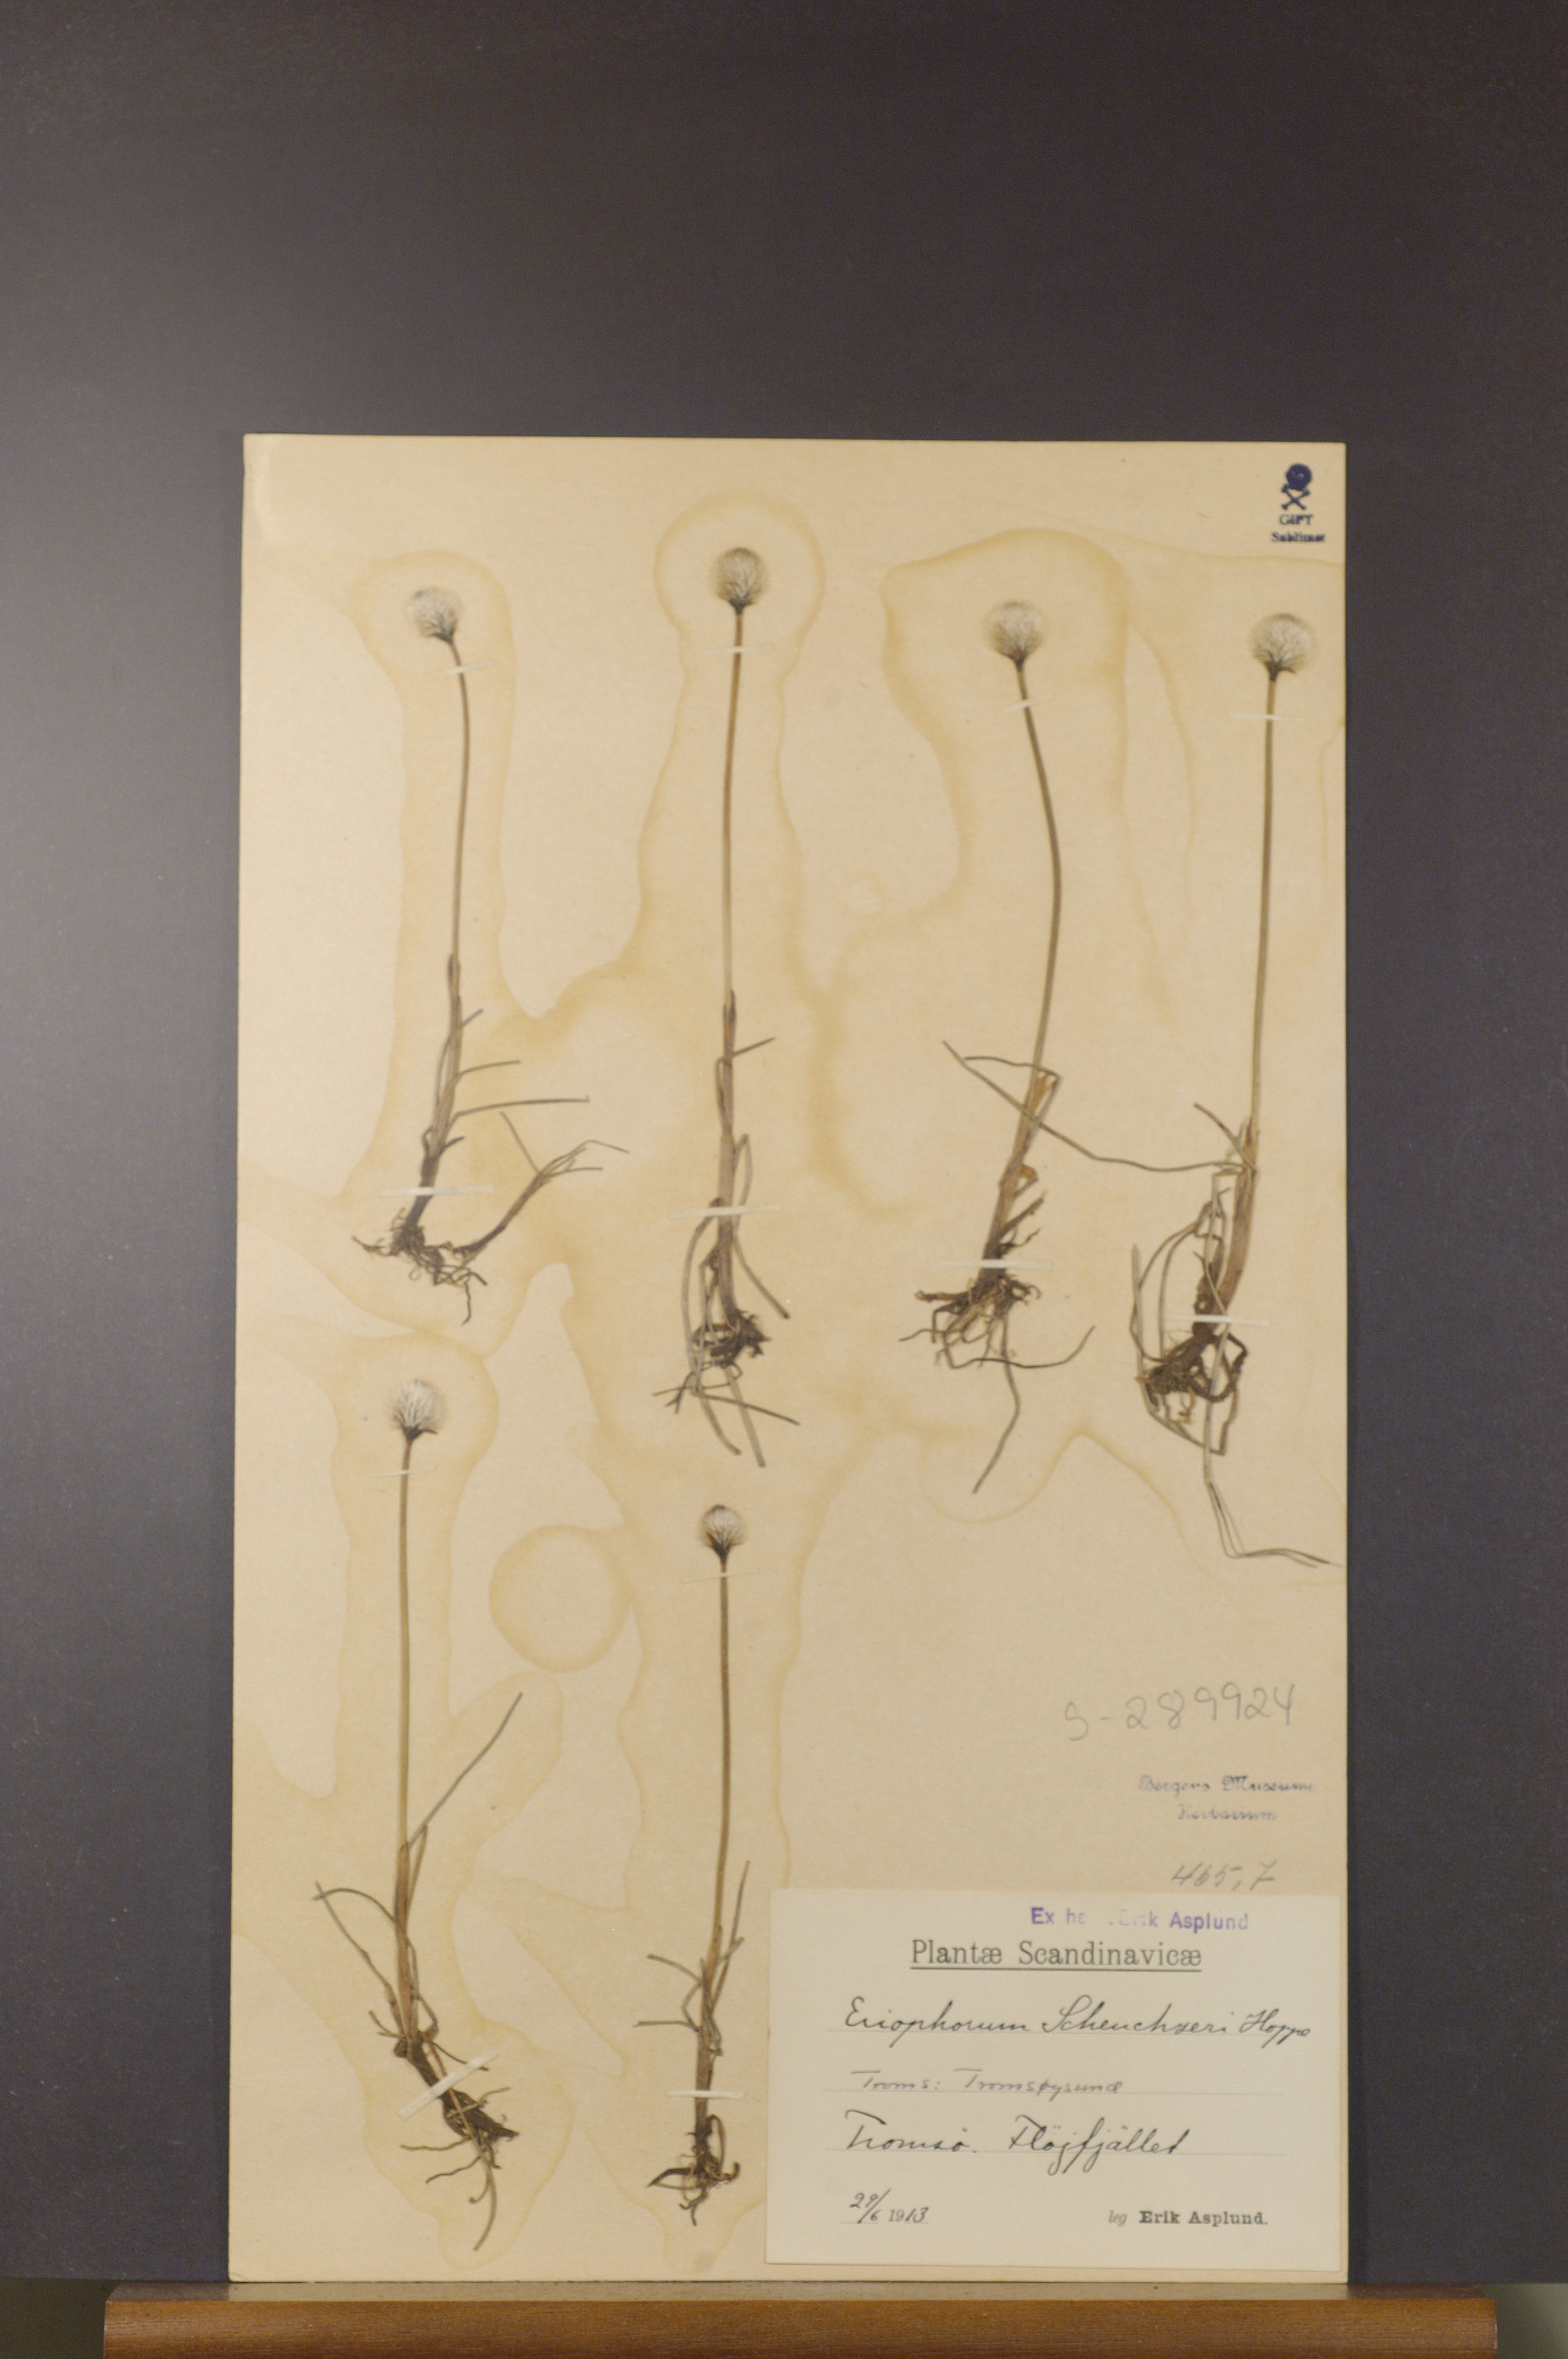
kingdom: Plantae
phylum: Tracheophyta
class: Liliopsida
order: Poales
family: Cyperaceae
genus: Eriophorum
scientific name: Eriophorum scheuchzeri
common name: Scheuchzer's cottongrass
